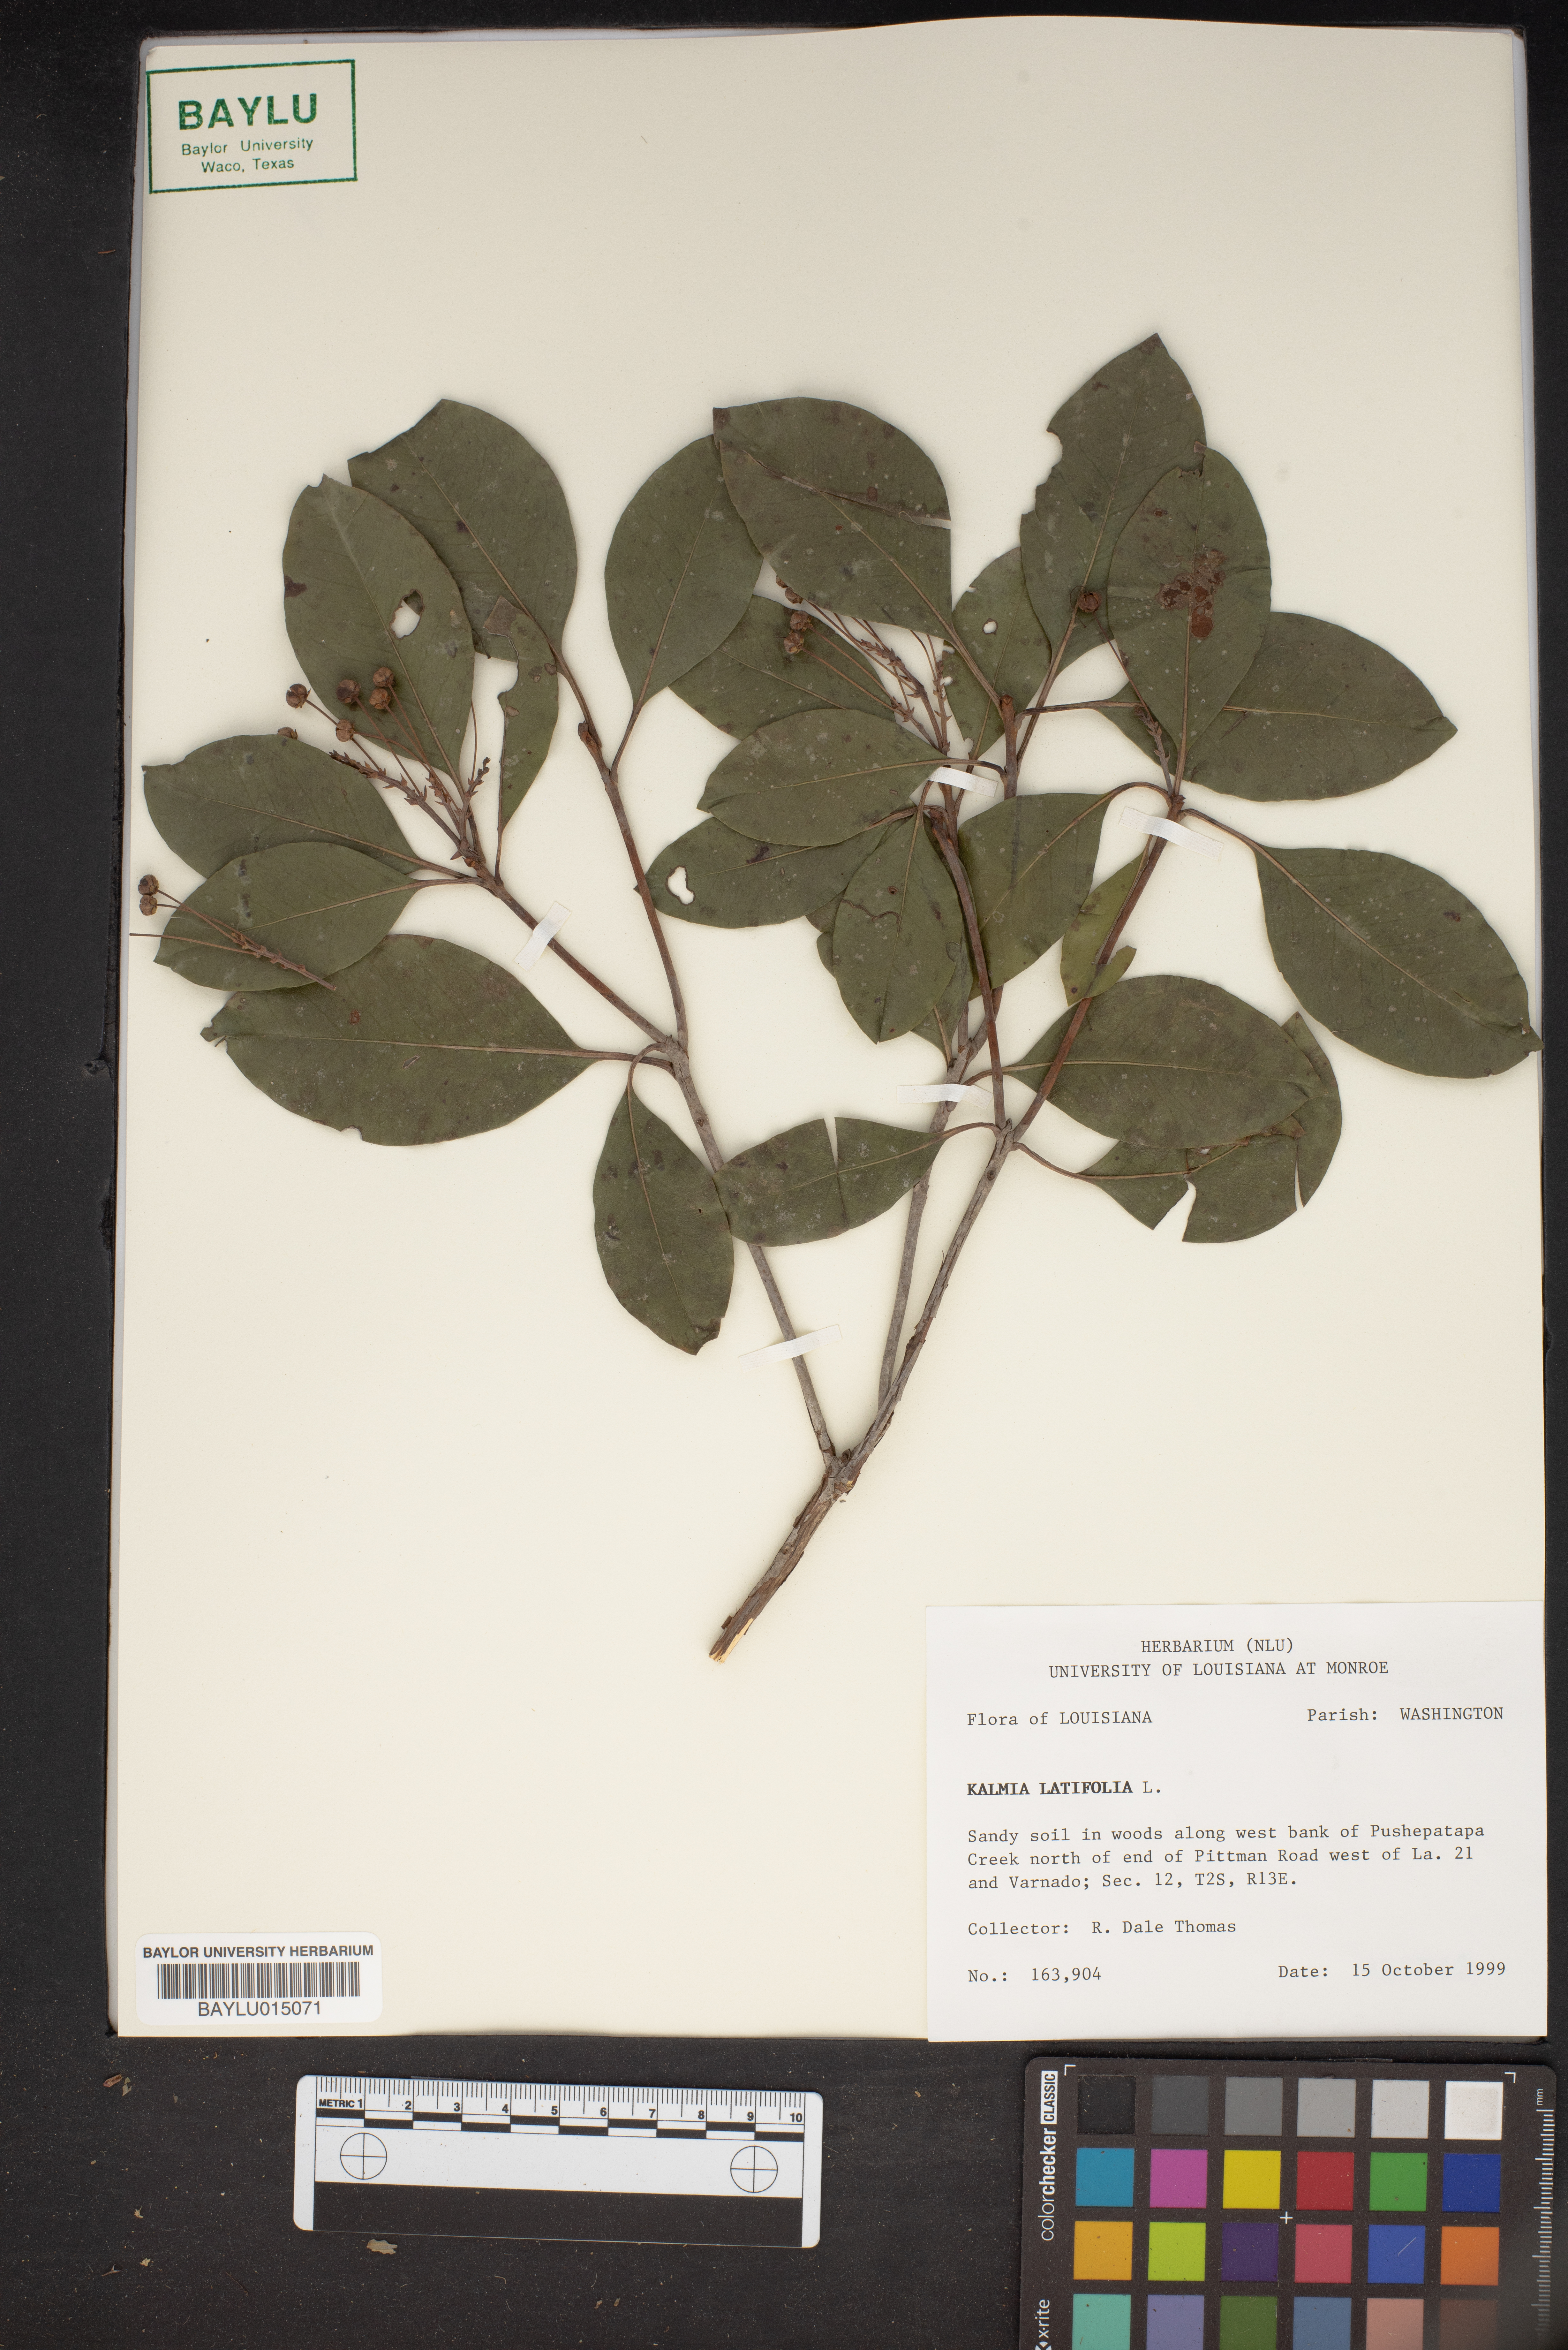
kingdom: Plantae
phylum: Tracheophyta
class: Magnoliopsida
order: Ericales
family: Ericaceae
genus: Kalmia
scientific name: Kalmia latifolia
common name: Mountain-laurel
